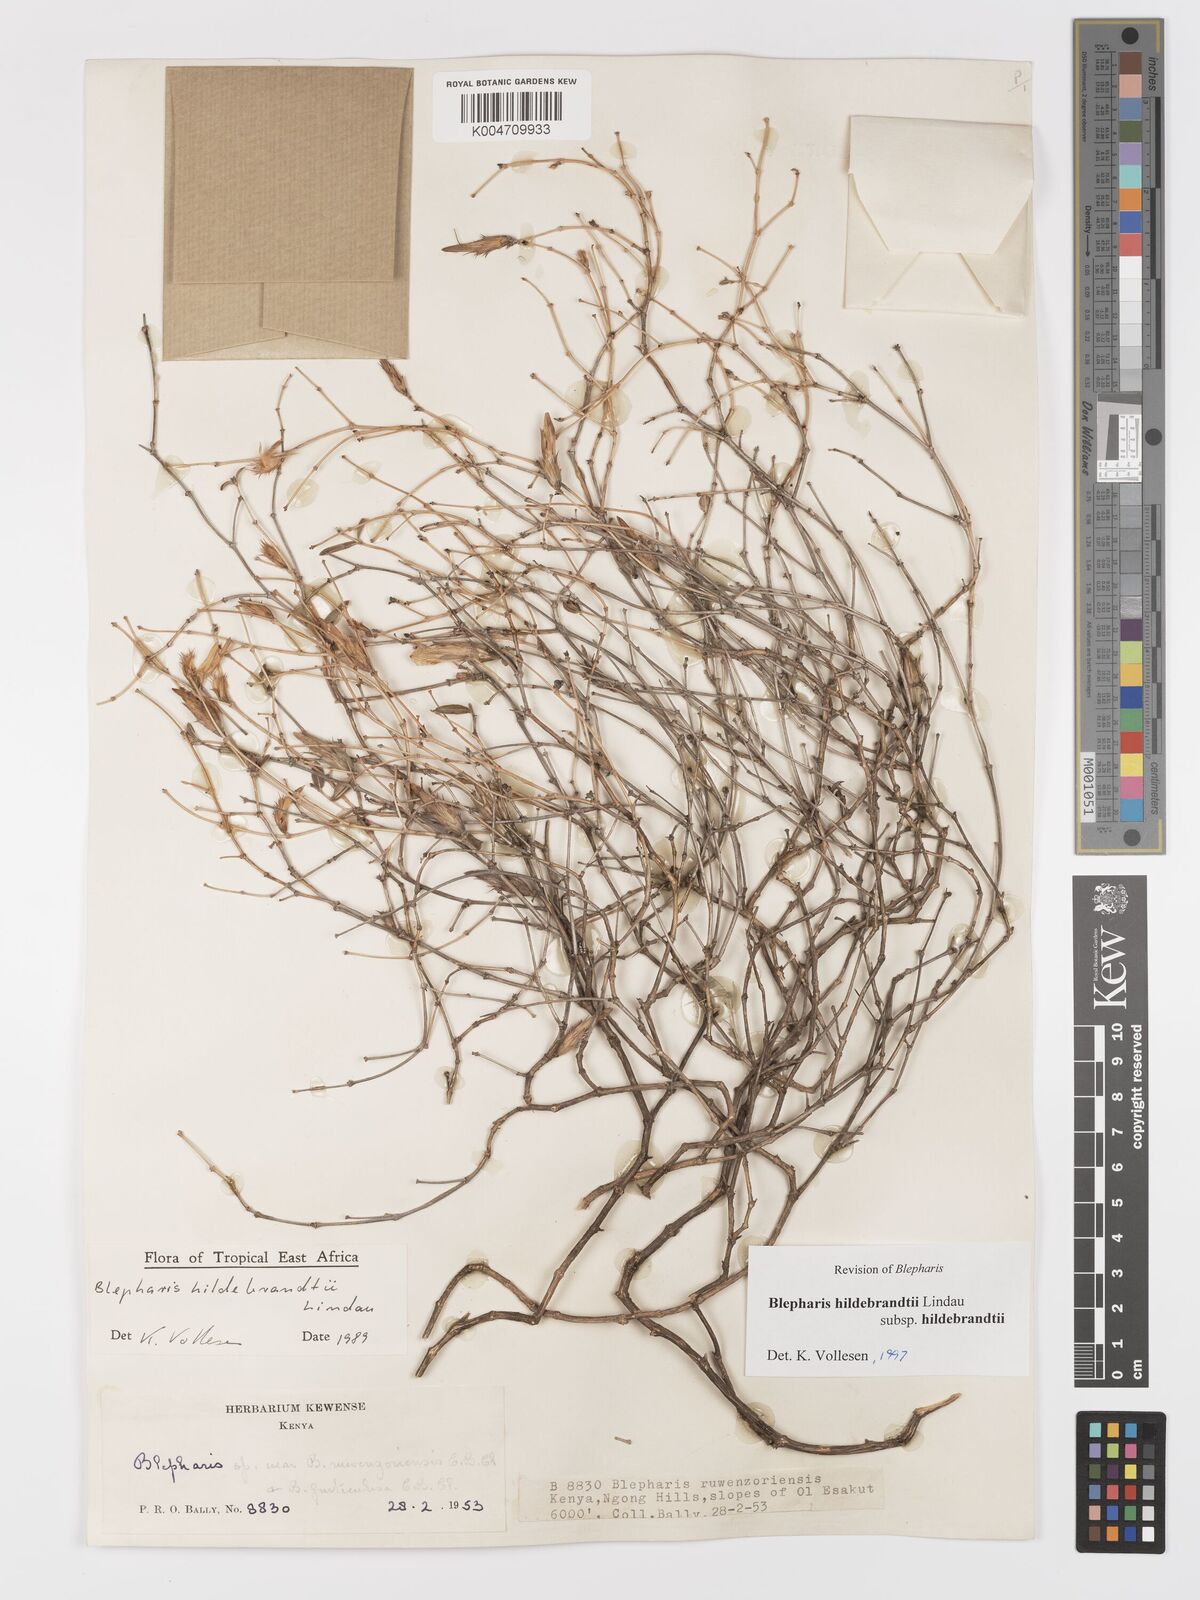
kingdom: Plantae
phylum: Tracheophyta
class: Magnoliopsida
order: Lamiales
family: Acanthaceae
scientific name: Acanthaceae
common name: Acanthaceae
